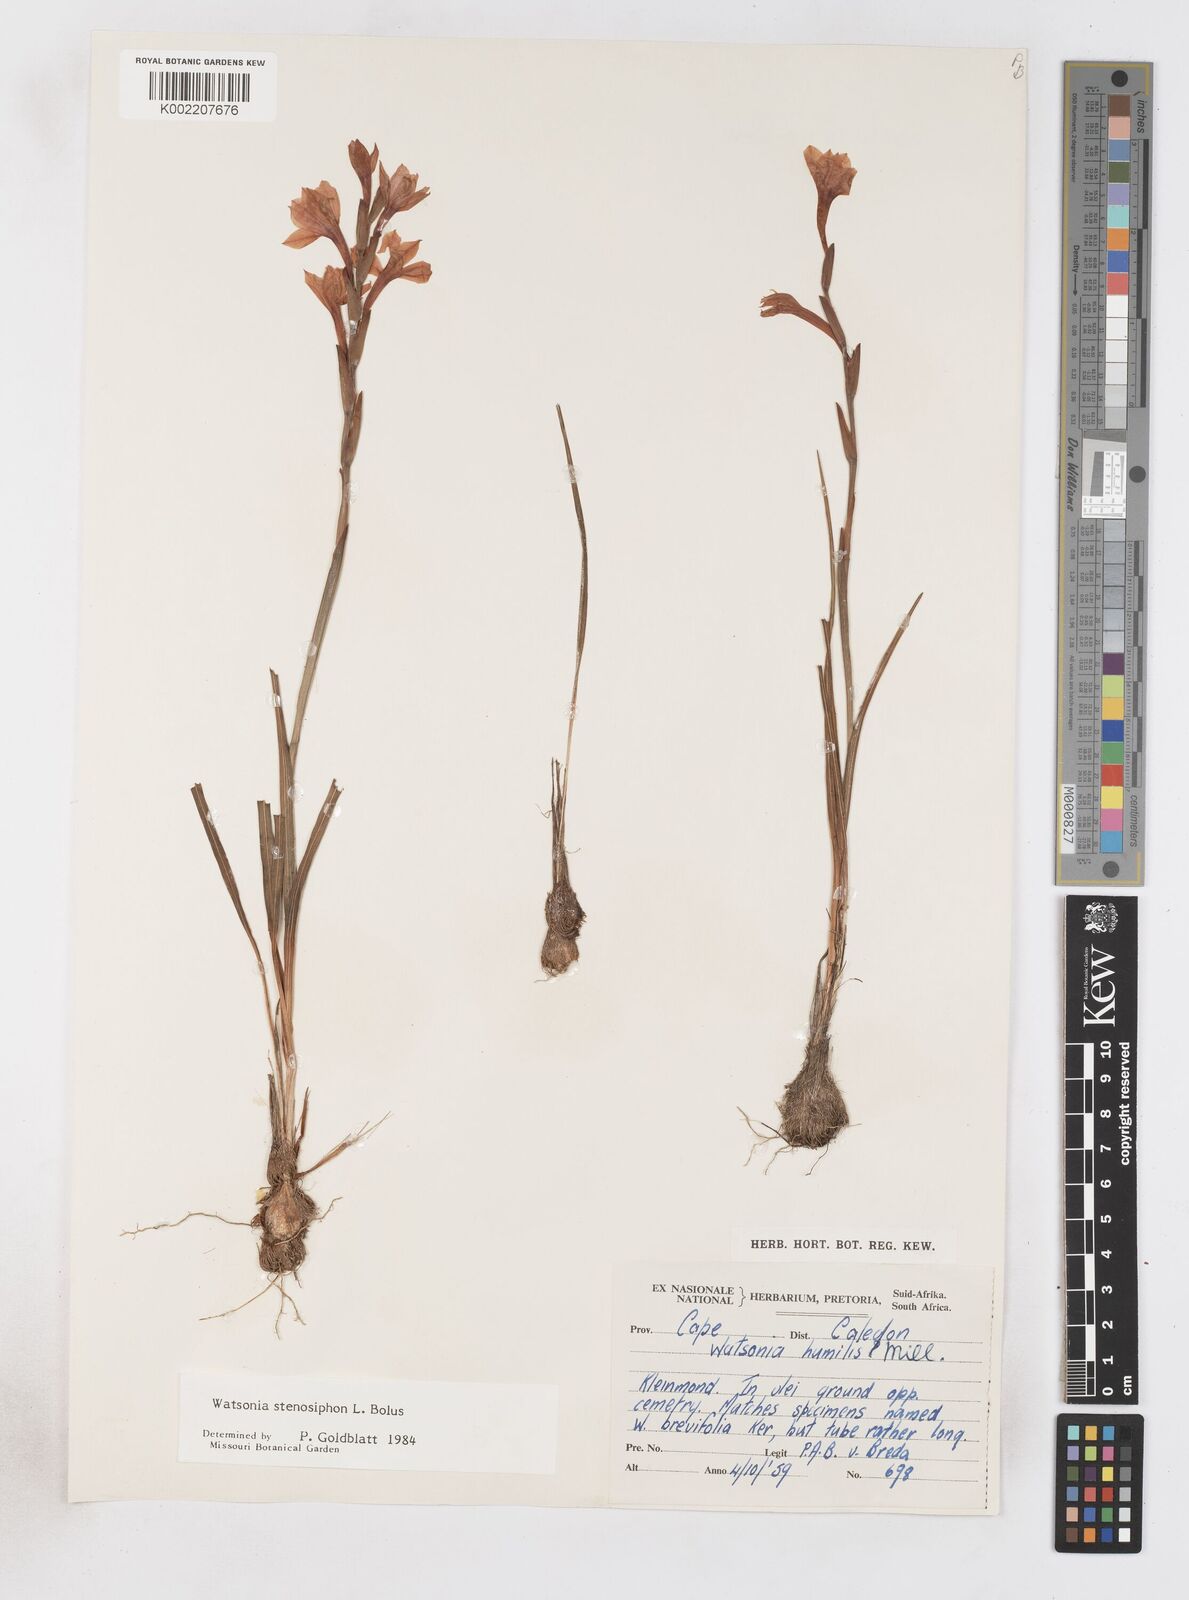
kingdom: Plantae
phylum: Tracheophyta
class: Liliopsida
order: Asparagales
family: Iridaceae
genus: Watsonia
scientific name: Watsonia stenosiphon
